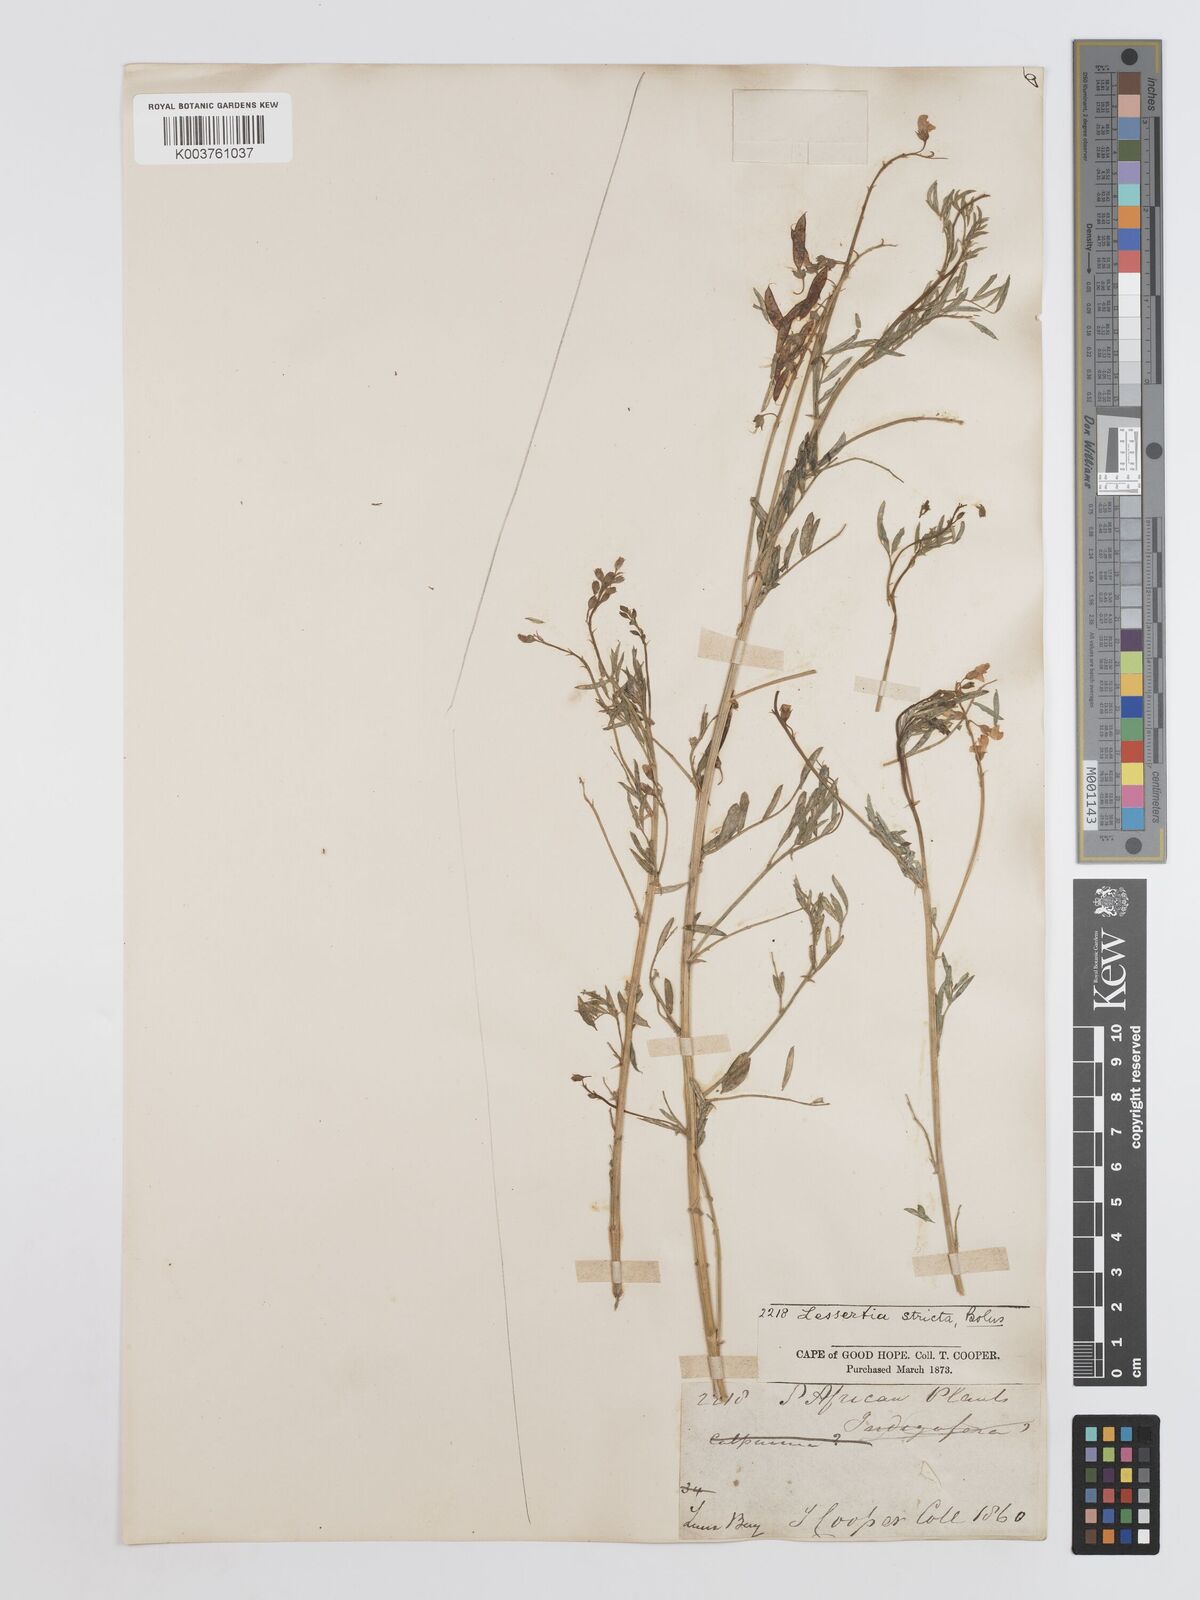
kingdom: Plantae
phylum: Tracheophyta
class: Magnoliopsida
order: Fabales
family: Fabaceae
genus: Lessertia
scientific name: Lessertia stricta
